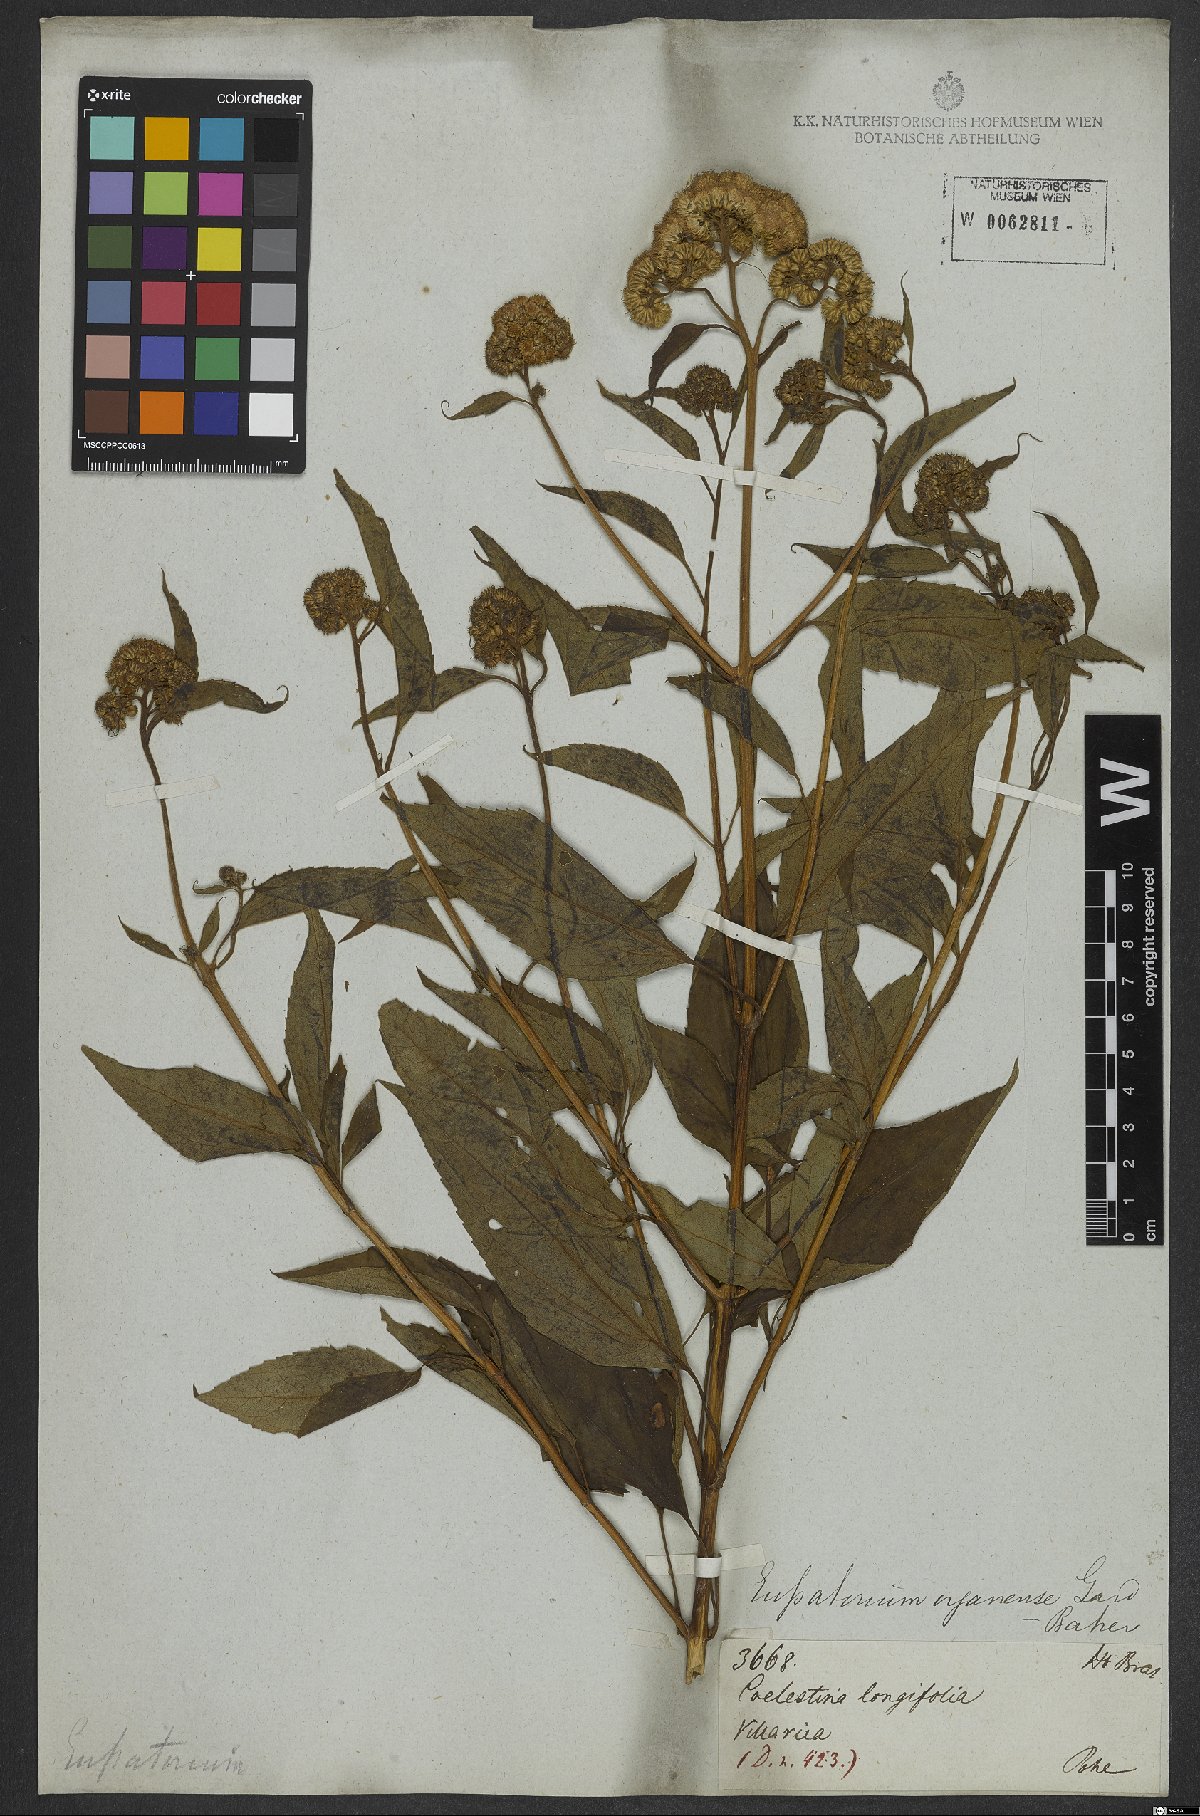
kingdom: Plantae
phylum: Tracheophyta
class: Magnoliopsida
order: Asterales
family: Asteraceae
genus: Barrosoa
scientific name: Barrosoa organensis
